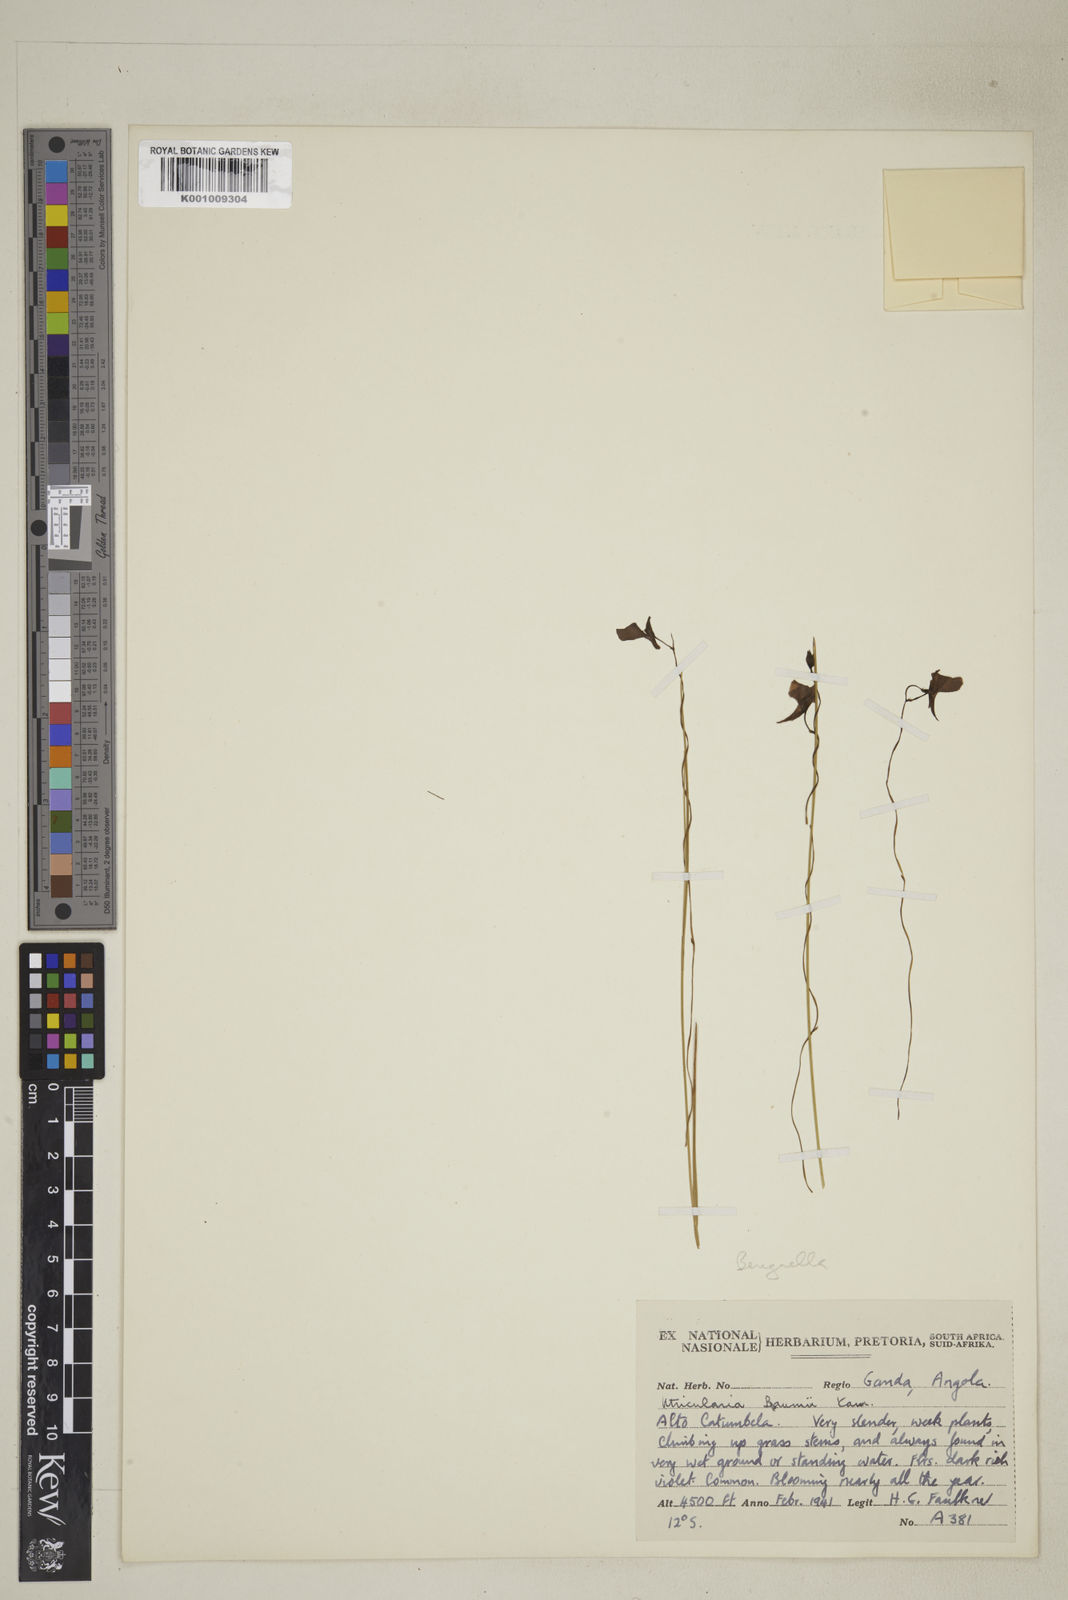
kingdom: Plantae
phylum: Tracheophyta
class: Magnoliopsida
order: Lamiales
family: Lentibulariaceae
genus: Utricularia
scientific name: Utricularia spiralis
